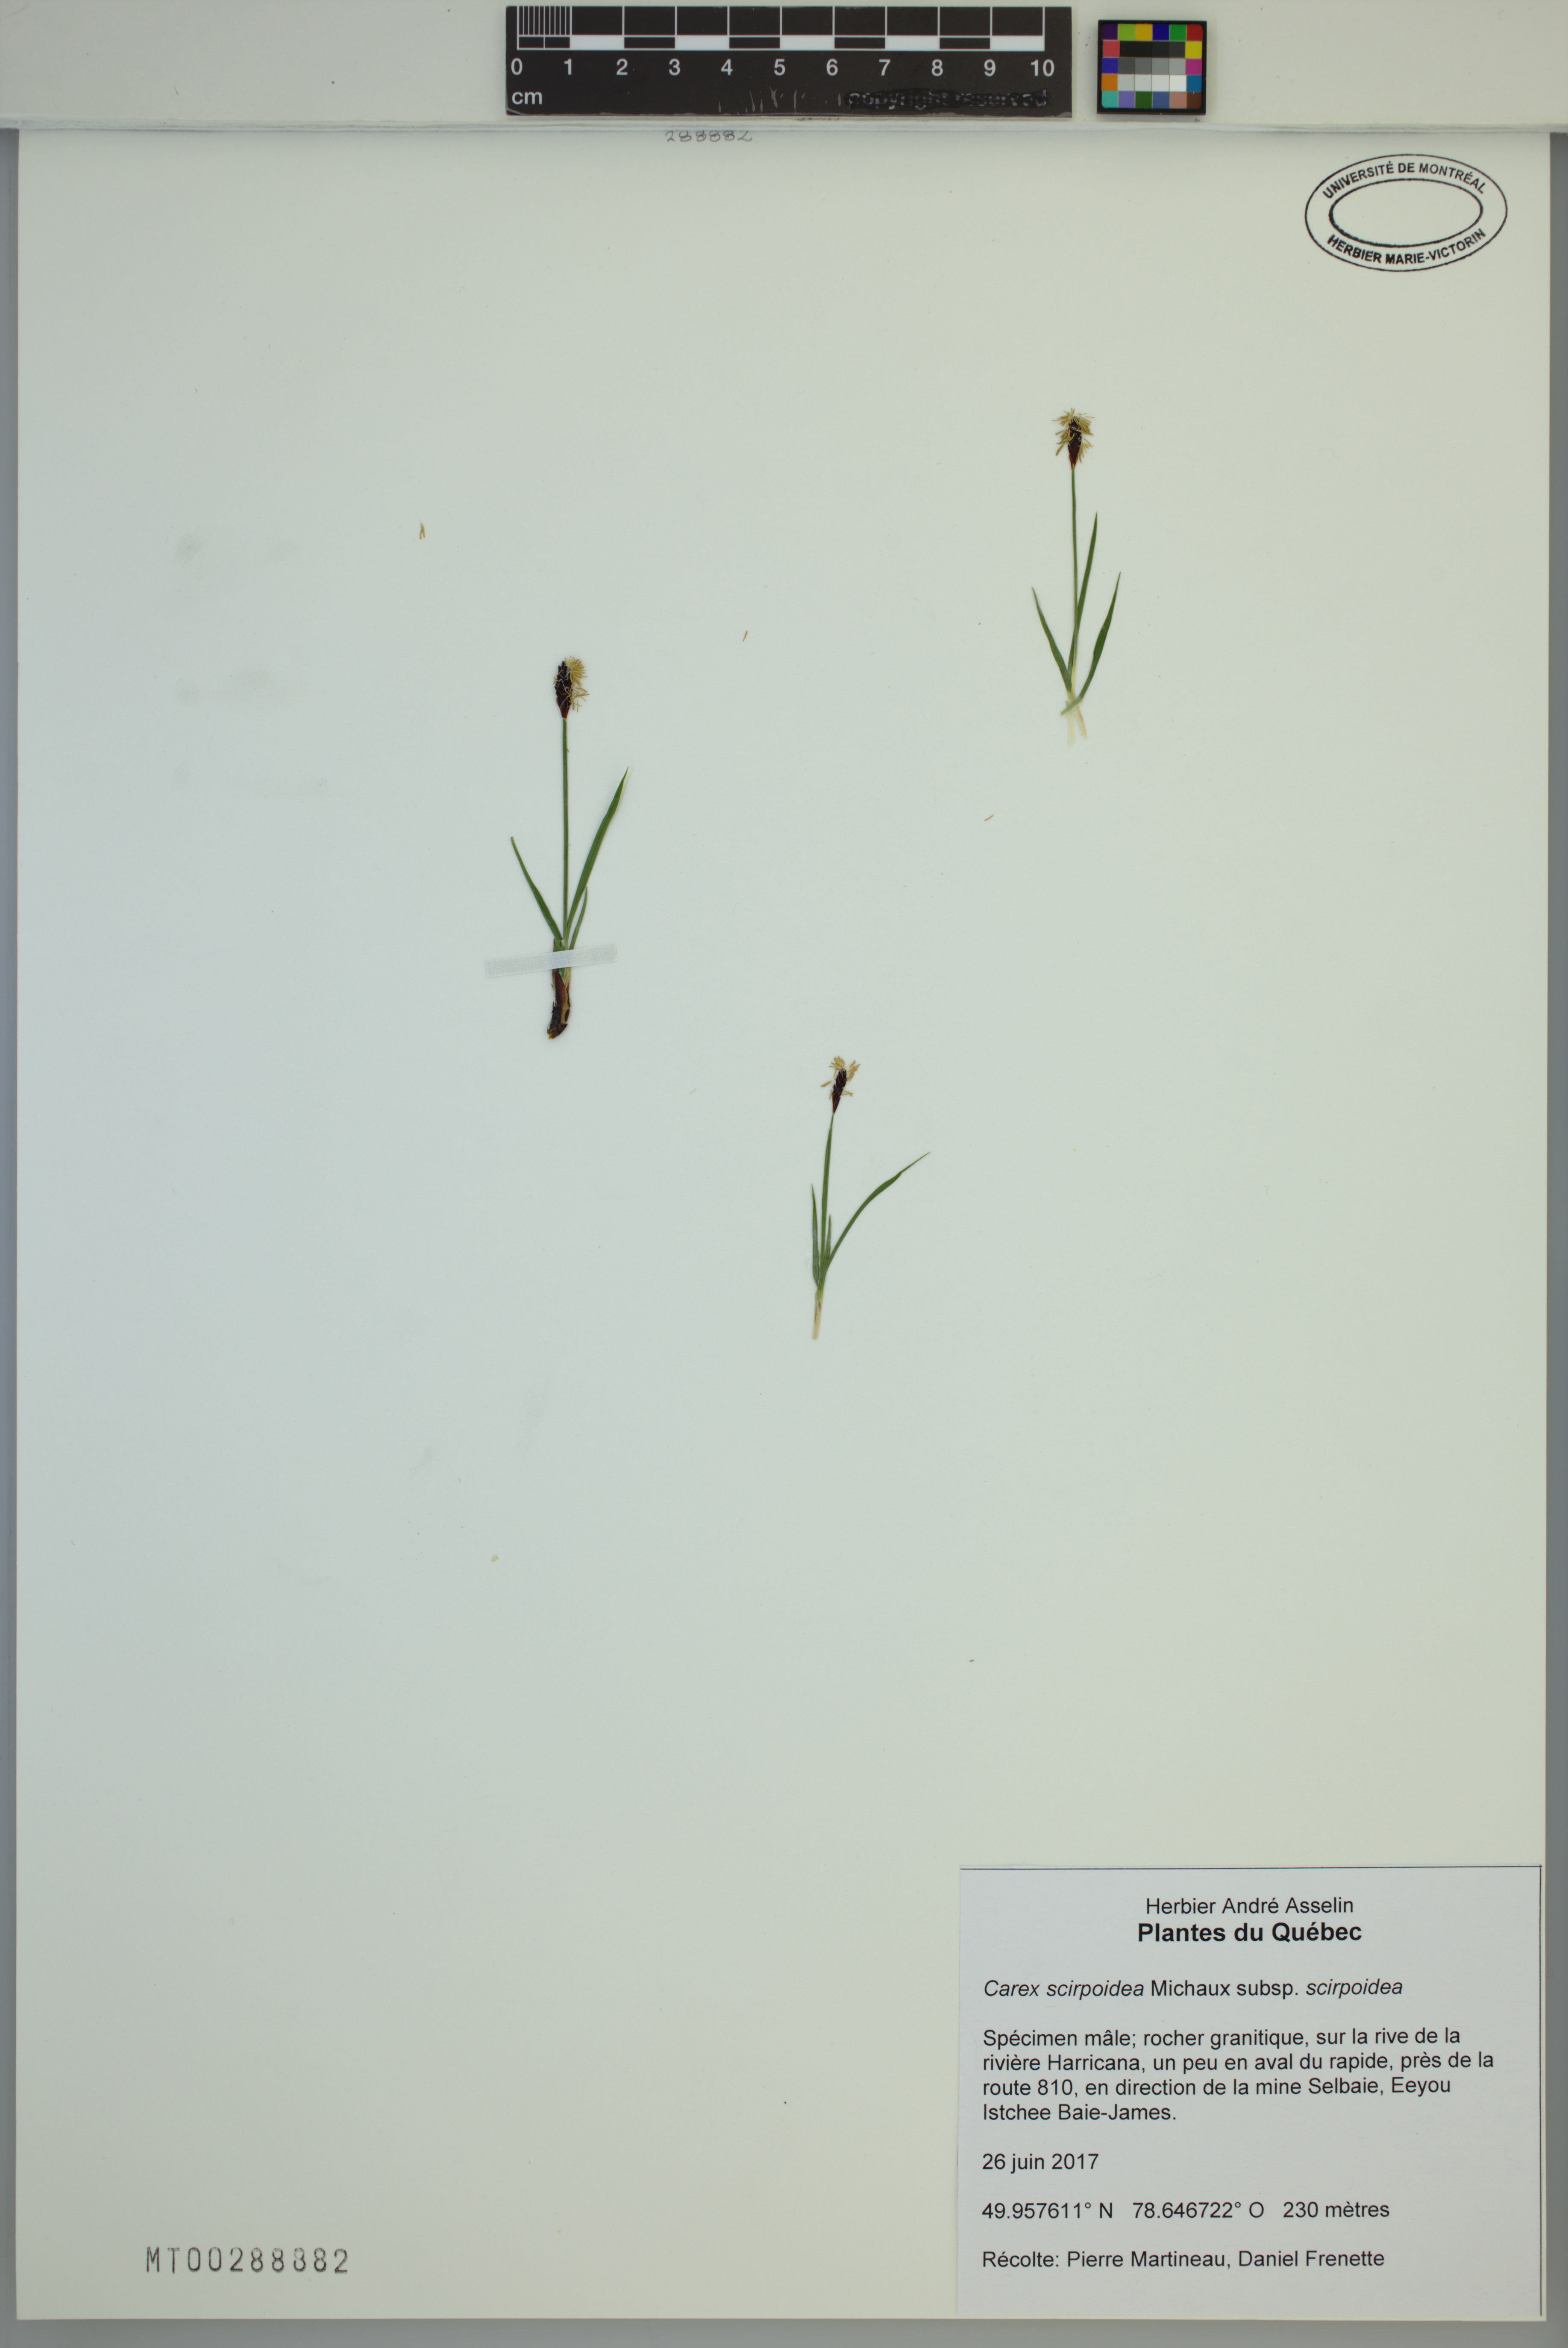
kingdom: Plantae
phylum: Tracheophyta
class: Liliopsida
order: Poales
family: Cyperaceae
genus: Carex
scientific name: Carex scirpoidea
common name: Canada single-spike sedge
